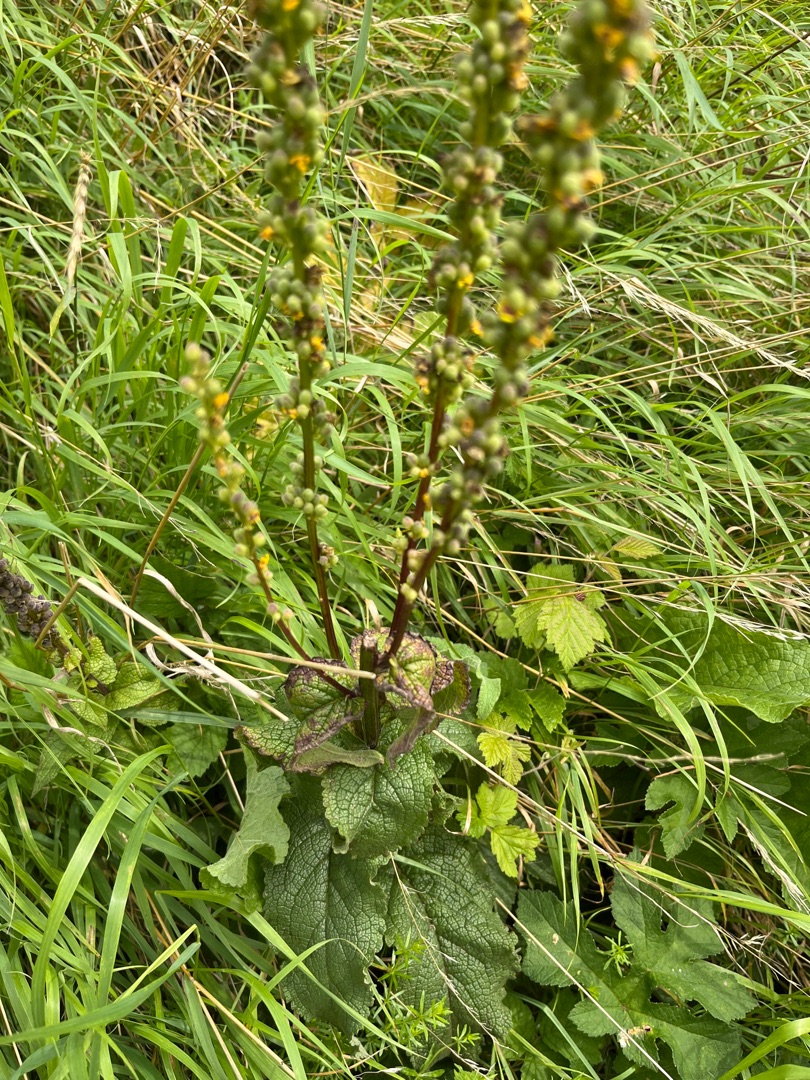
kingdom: Plantae
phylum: Tracheophyta
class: Magnoliopsida
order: Lamiales
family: Scrophulariaceae
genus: Verbascum
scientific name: Verbascum nigrum
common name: Mørk kongelys
